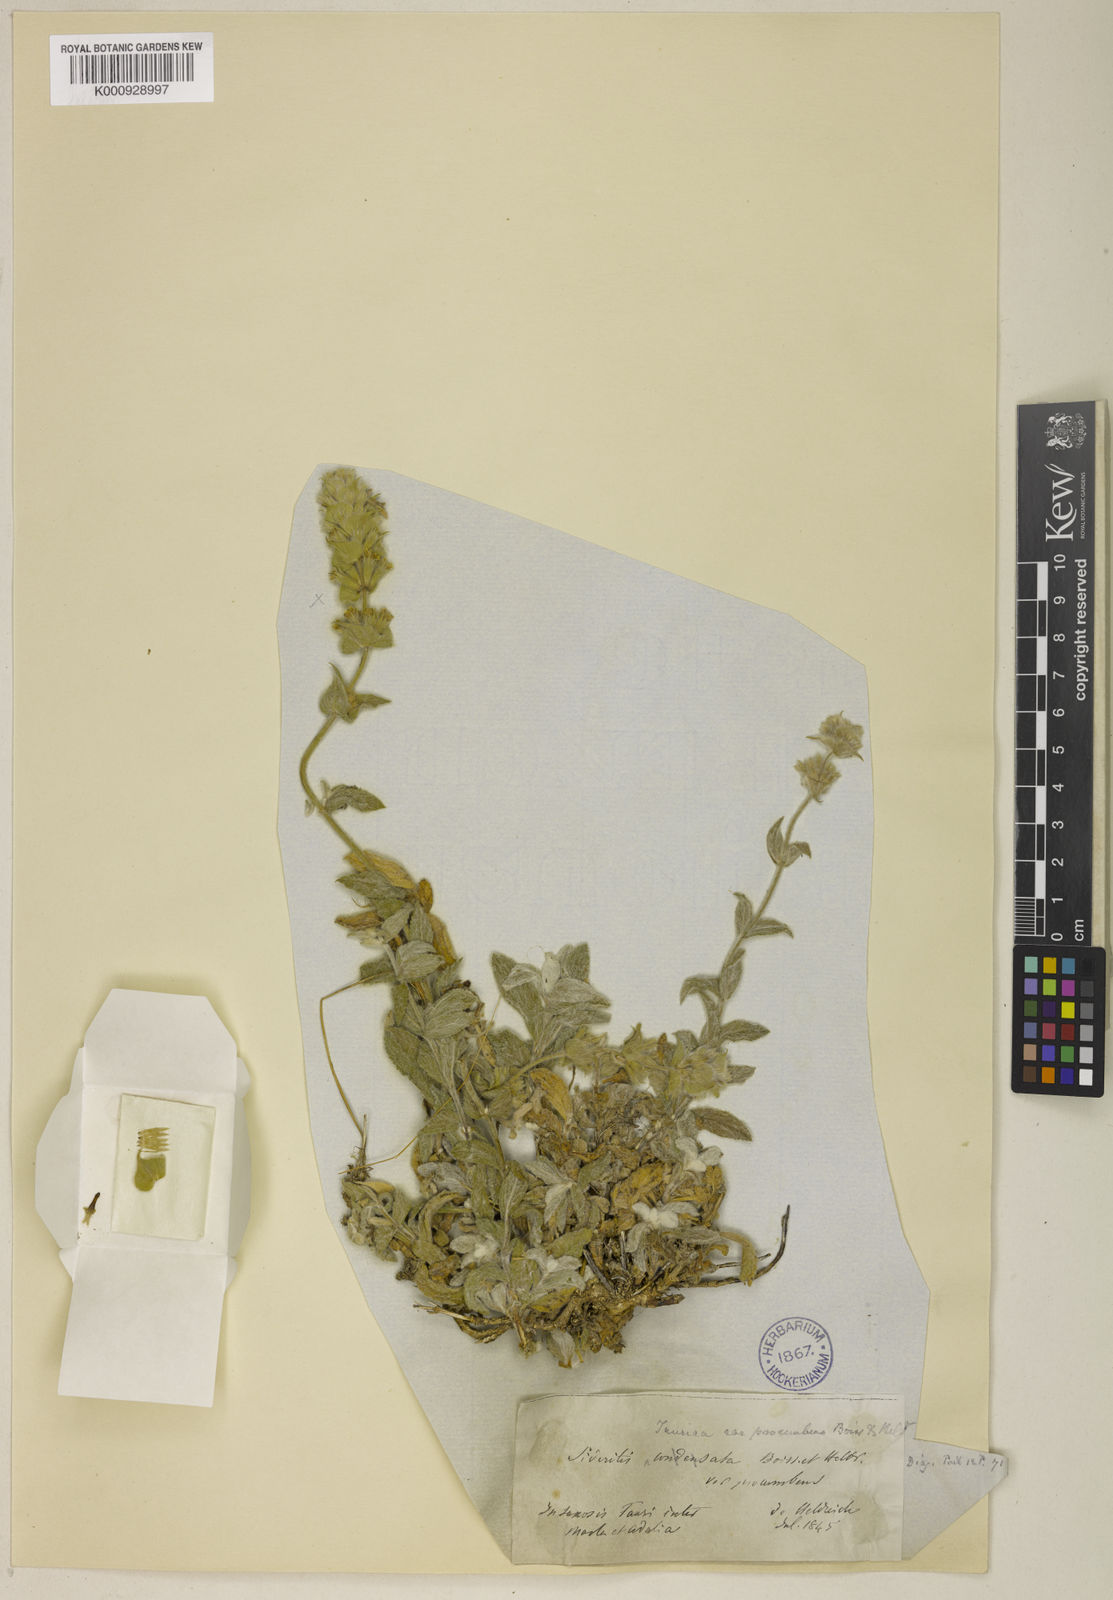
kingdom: Plantae
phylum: Tracheophyta
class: Magnoliopsida
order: Lamiales
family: Lamiaceae
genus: Sideritis
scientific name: Sideritis condensata
